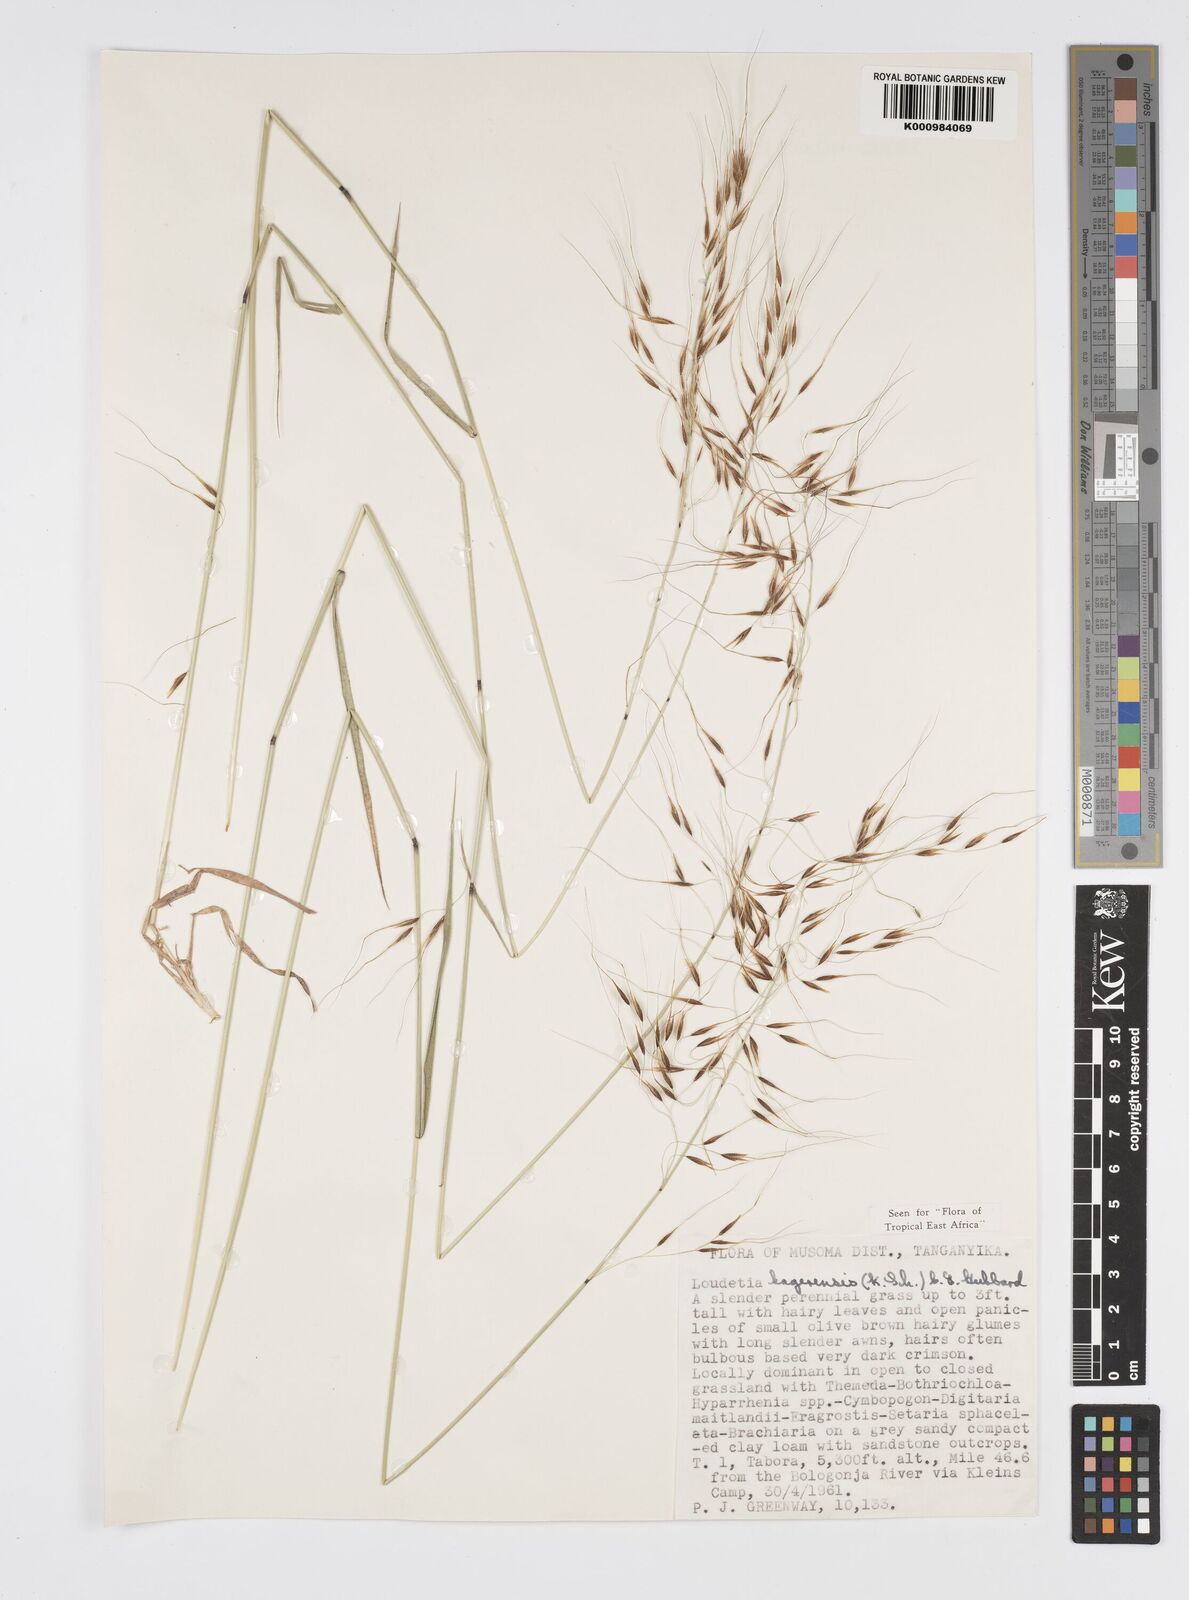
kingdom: Plantae
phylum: Tracheophyta
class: Liliopsida
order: Poales
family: Poaceae
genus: Loudetia
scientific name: Loudetia kagerensis
